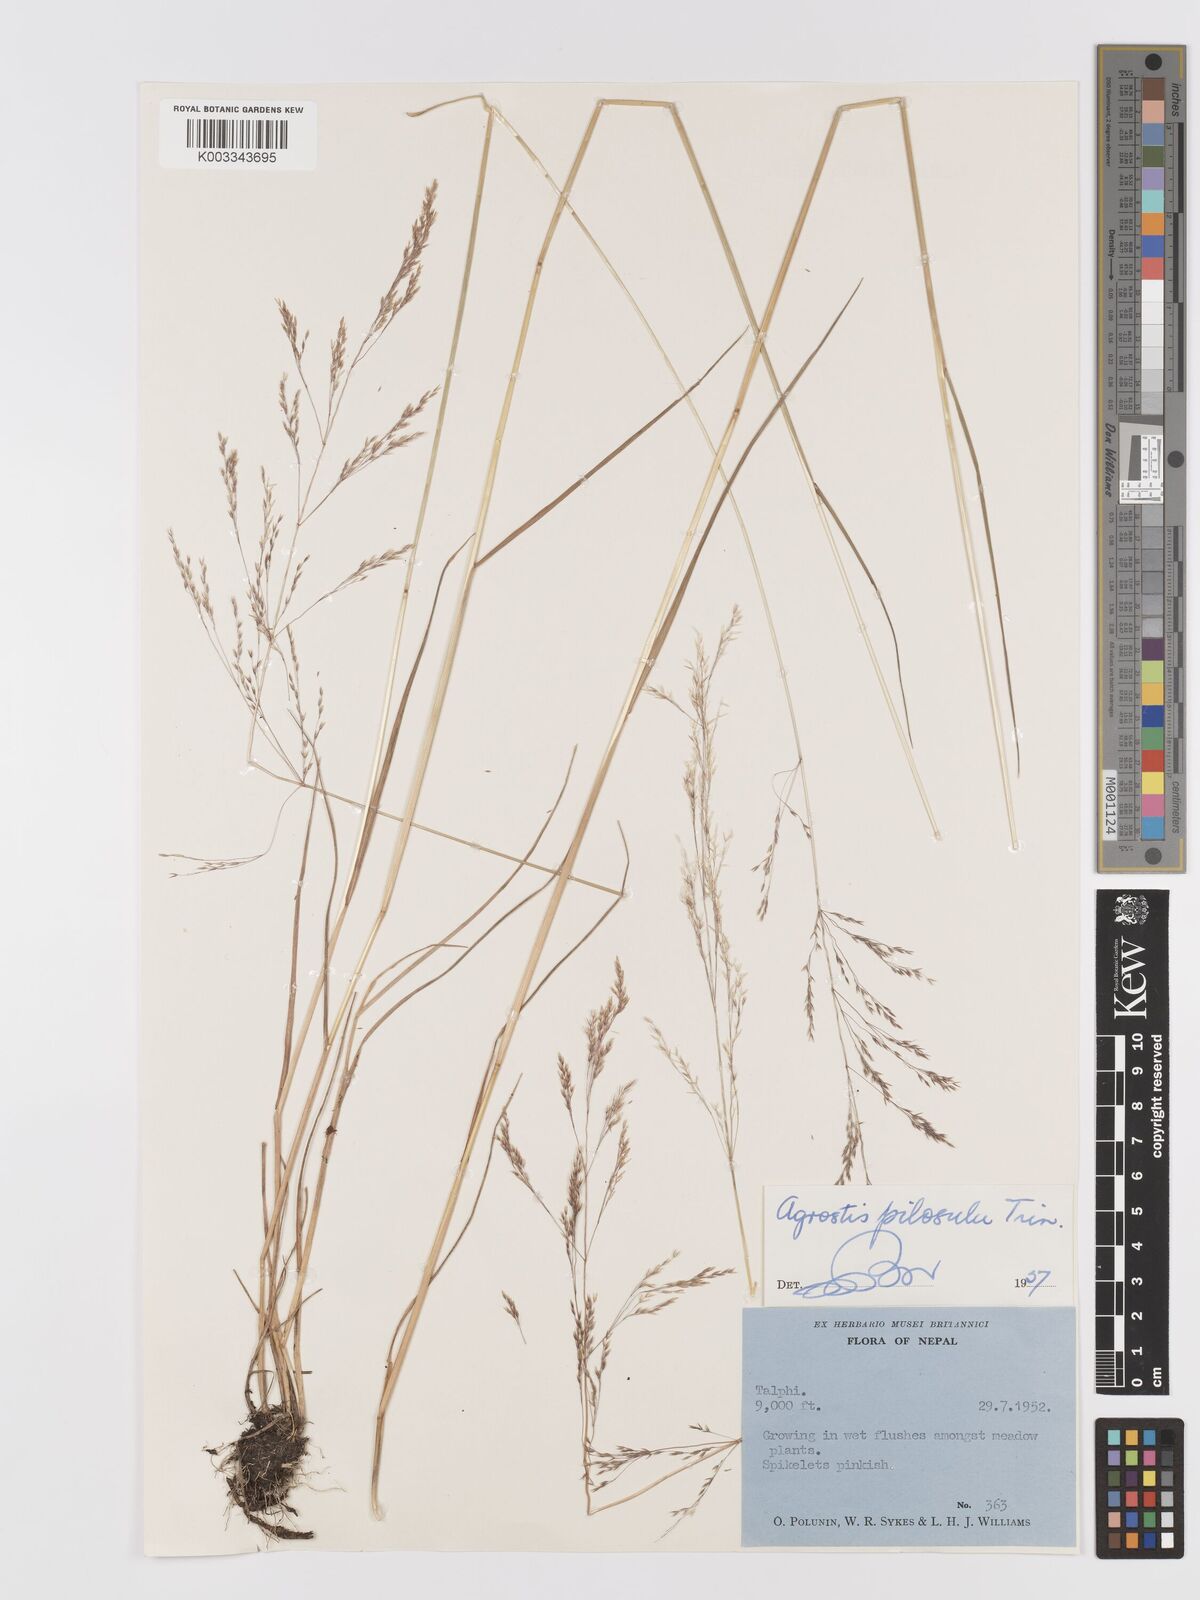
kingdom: Plantae
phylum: Tracheophyta
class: Liliopsida
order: Poales
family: Poaceae
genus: Agrostis
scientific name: Agrostis pilosula
